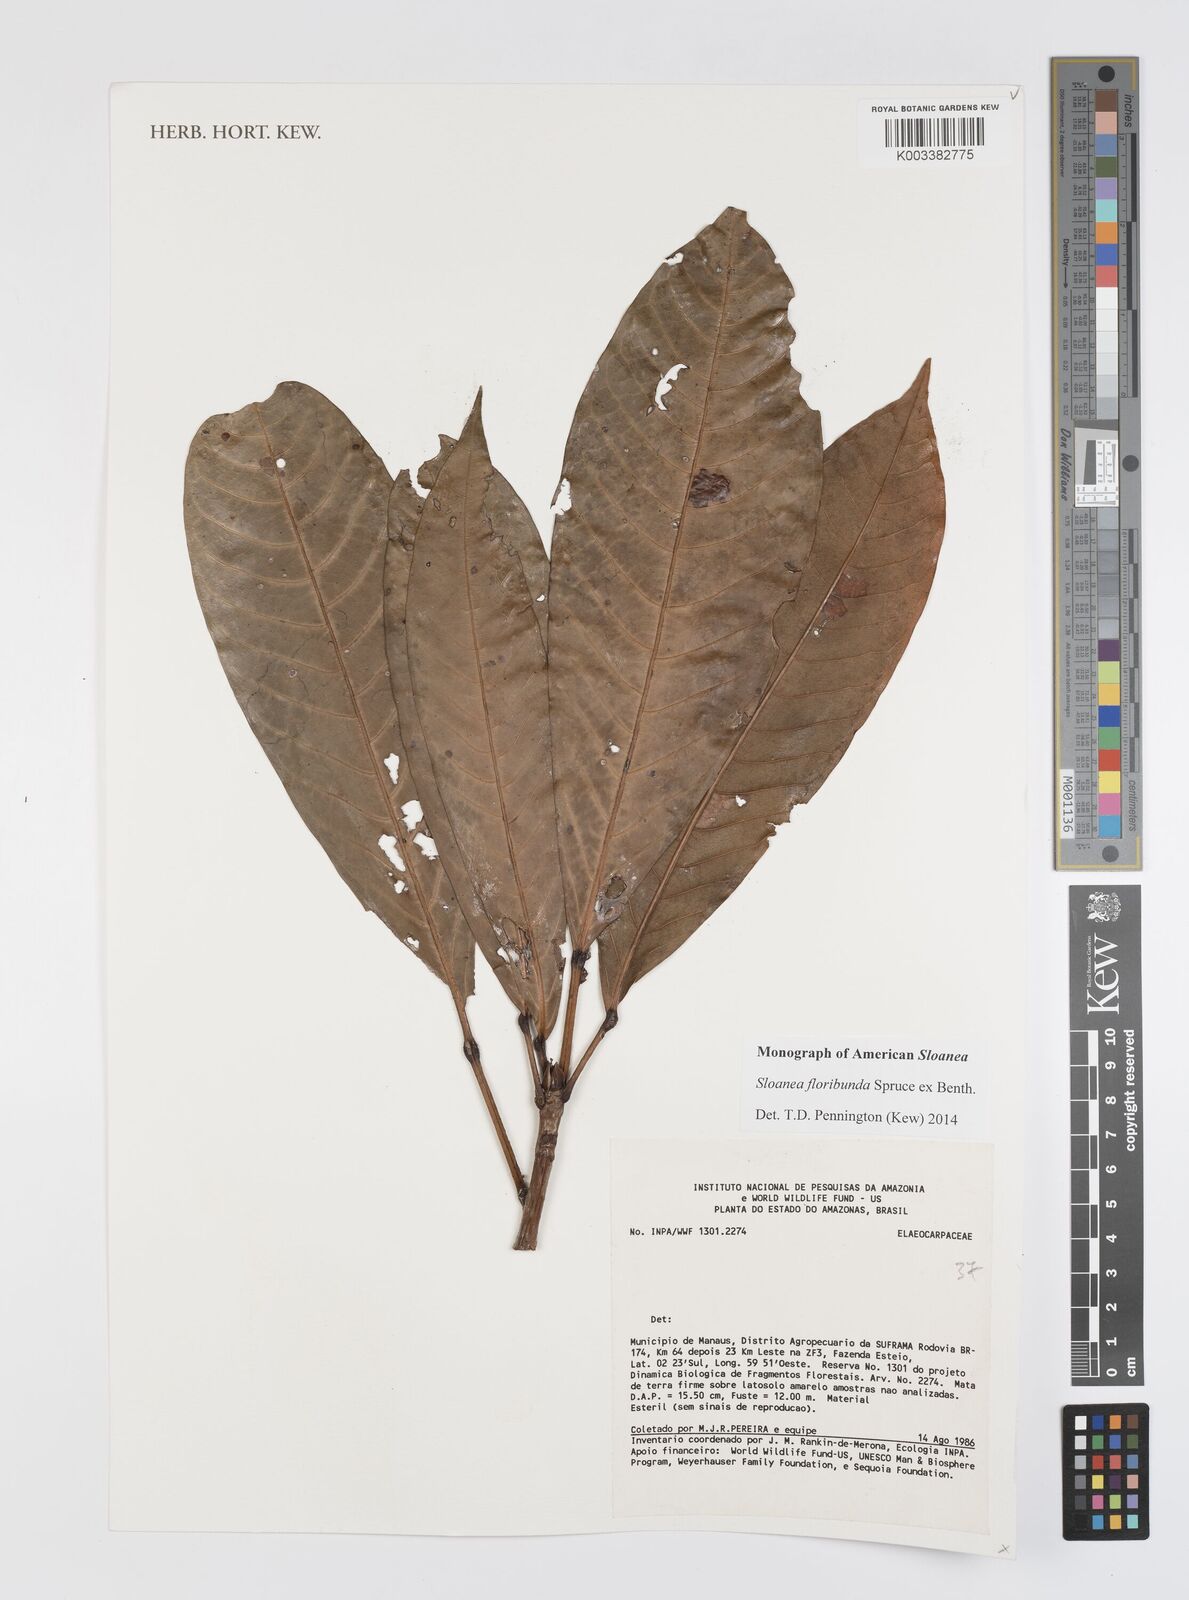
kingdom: Plantae
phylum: Tracheophyta
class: Magnoliopsida
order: Oxalidales
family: Elaeocarpaceae
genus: Sloanea
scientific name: Sloanea floribunda
